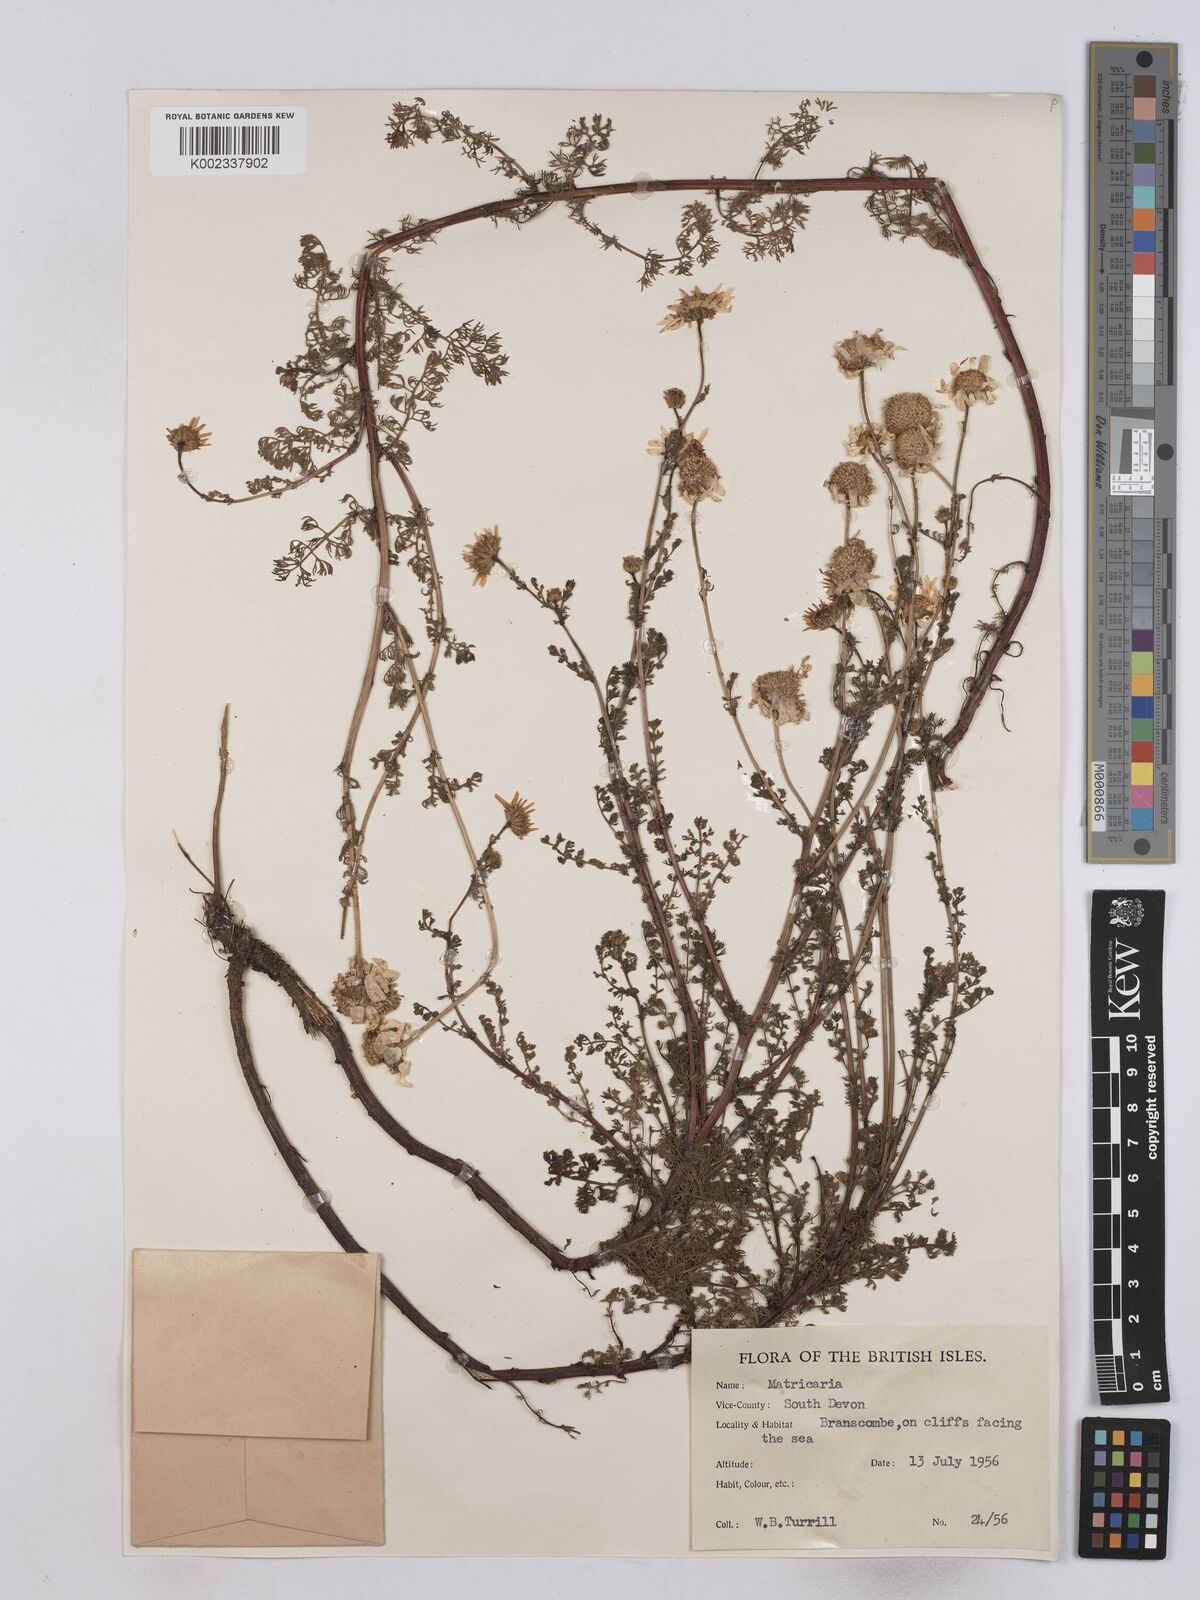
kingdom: Plantae
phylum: Tracheophyta
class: Magnoliopsida
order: Asterales
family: Asteraceae
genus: Matricaria
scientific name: Matricaria discoidea
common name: Disc mayweed
